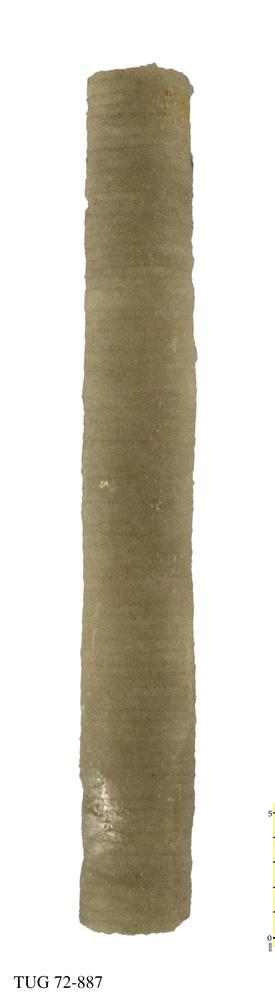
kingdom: Animalia
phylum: Echinodermata
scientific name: Echinodermata
